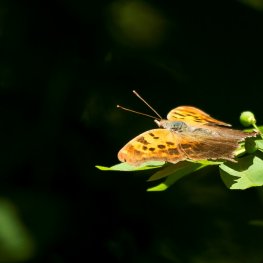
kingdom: Animalia
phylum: Arthropoda
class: Insecta
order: Lepidoptera
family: Nymphalidae
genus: Polygonia
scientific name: Polygonia interrogationis
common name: Question Mark
